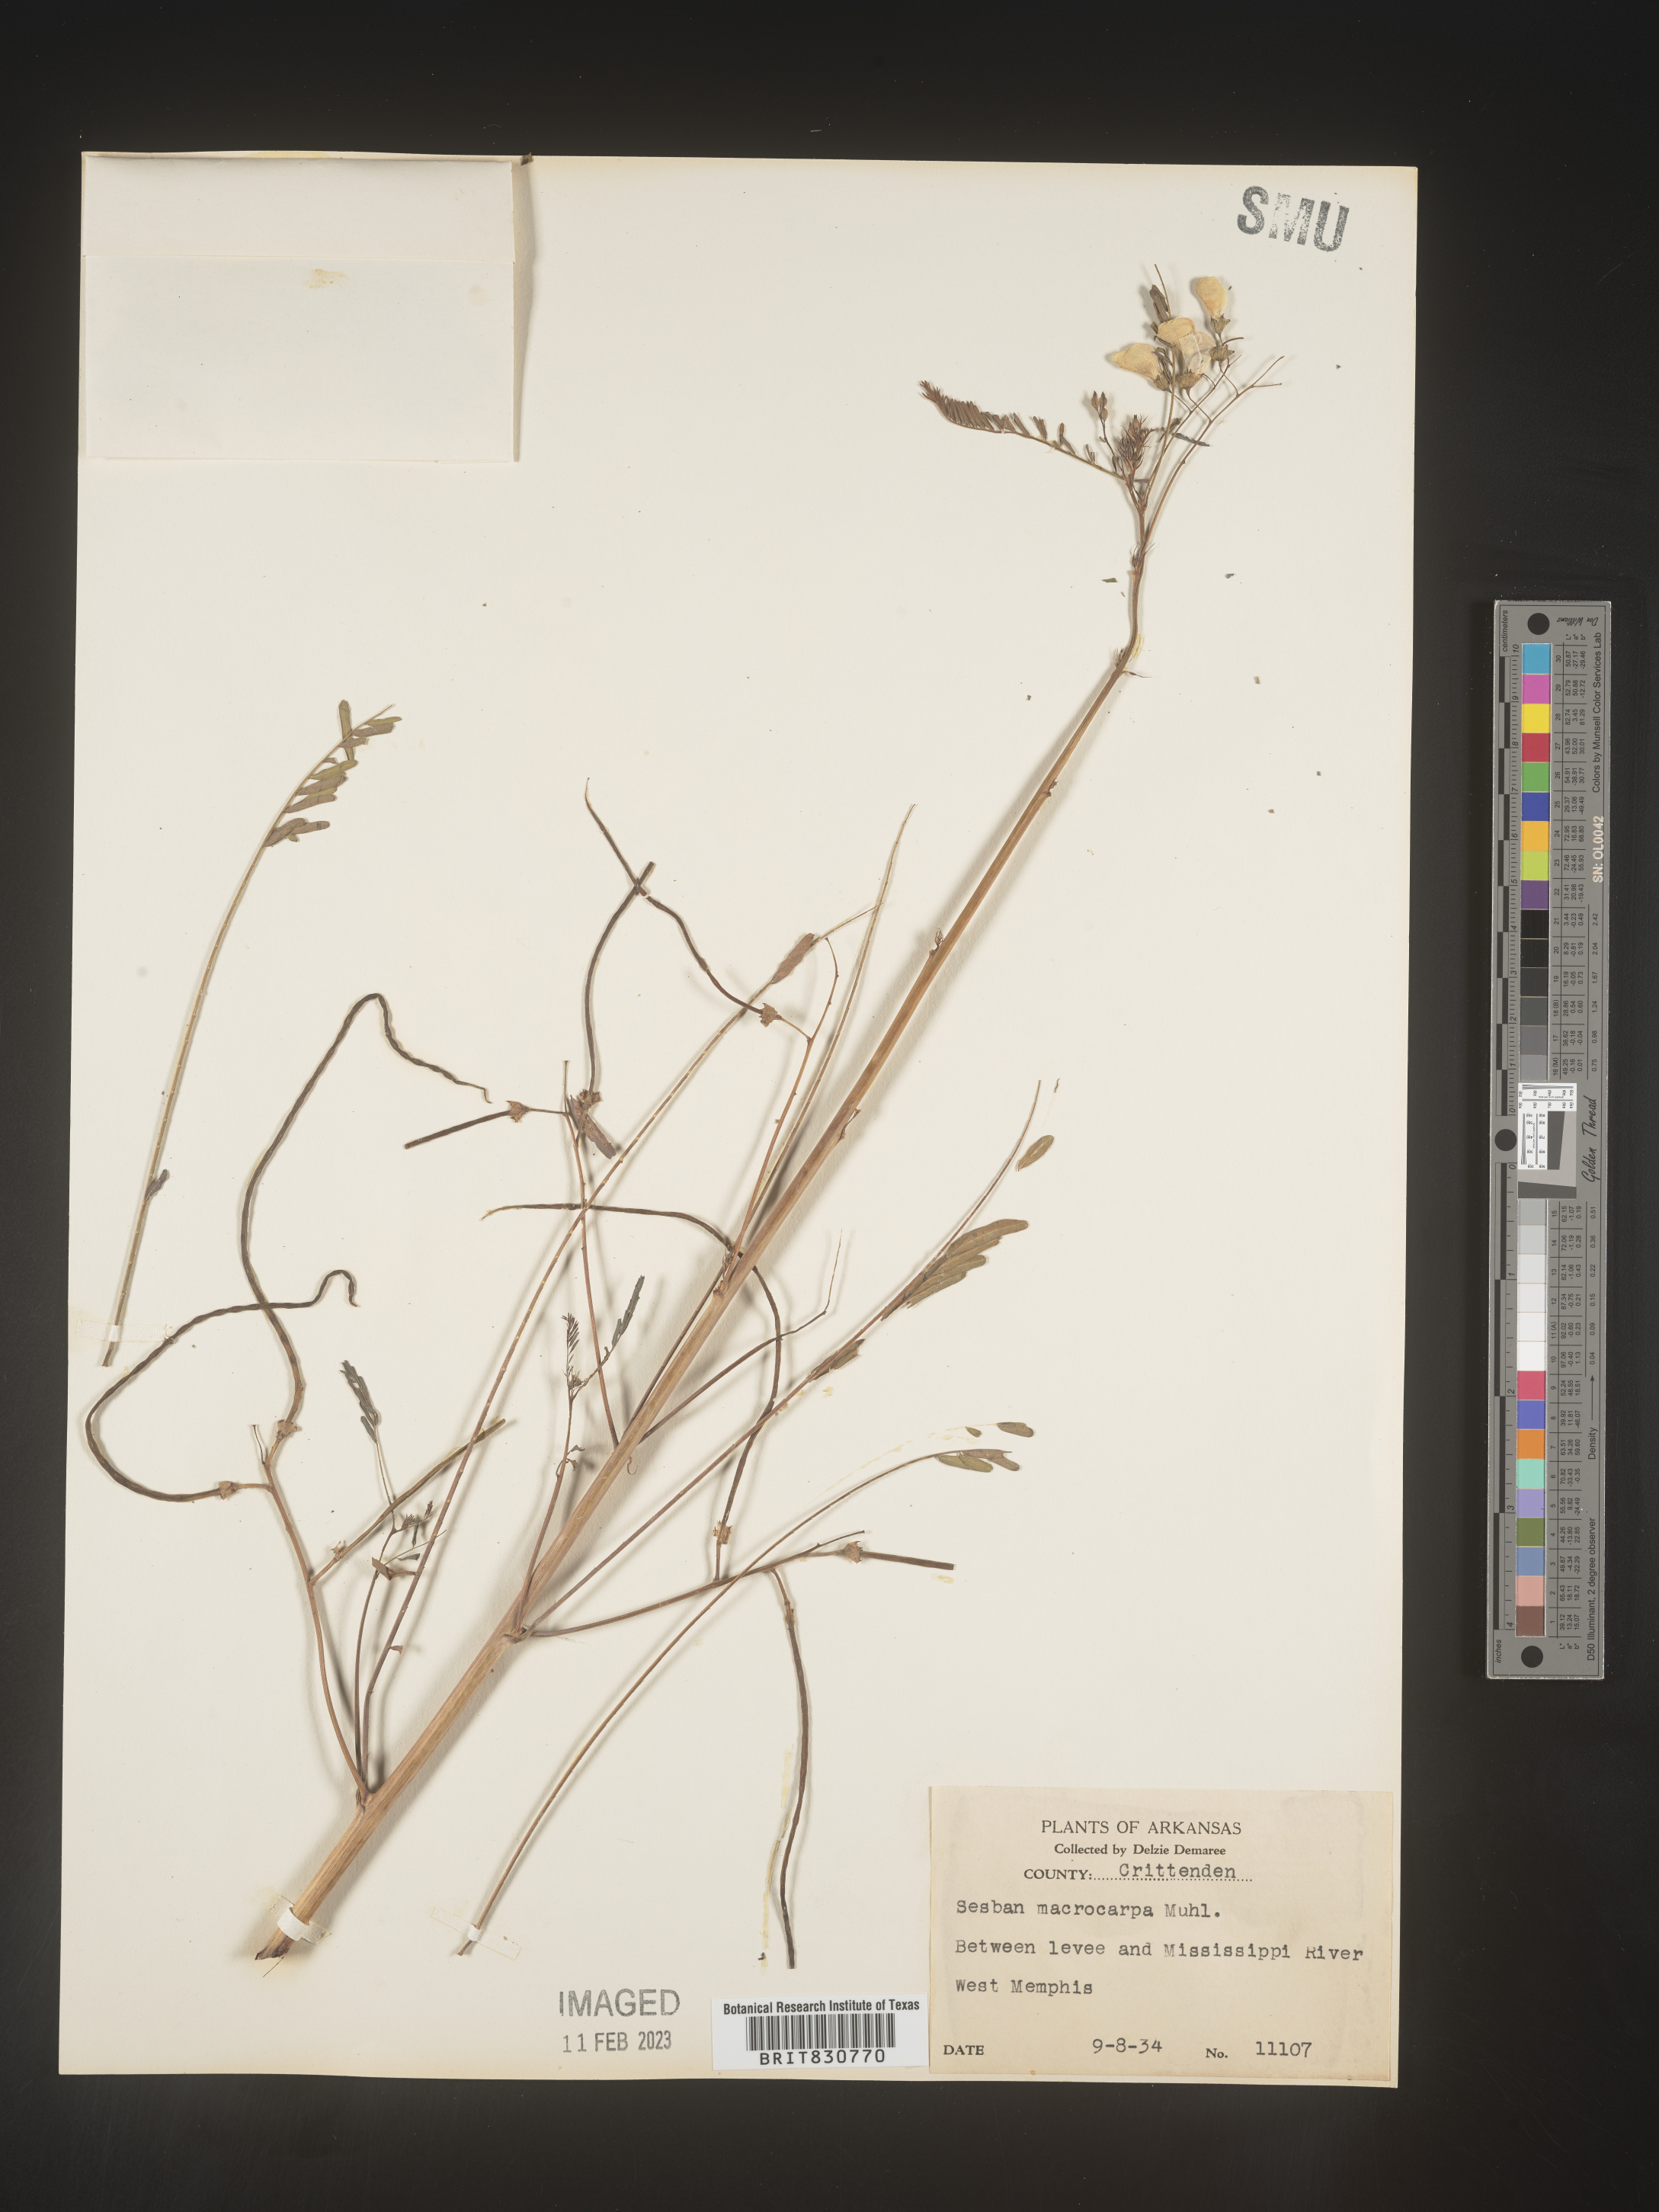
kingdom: Plantae
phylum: Tracheophyta
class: Magnoliopsida
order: Fabales
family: Fabaceae
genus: Sesbania
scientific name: Sesbania vesicaria
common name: Bagpod
